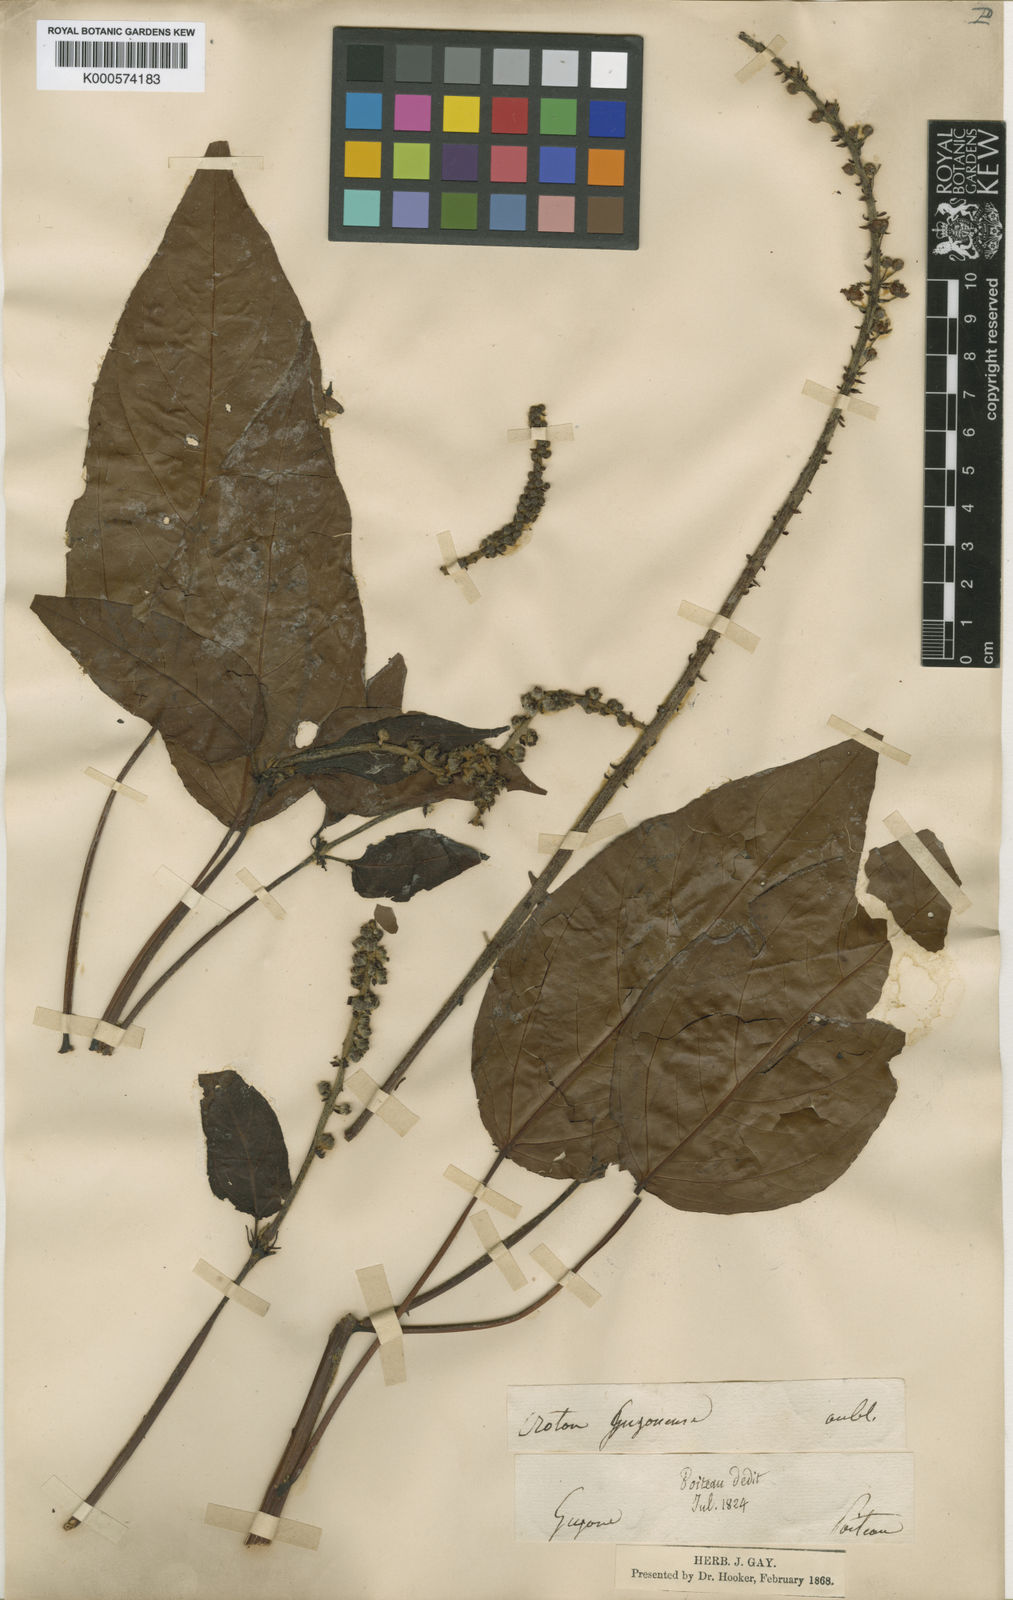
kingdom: Plantae
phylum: Tracheophyta
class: Magnoliopsida
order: Malpighiales
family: Euphorbiaceae
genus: Croton
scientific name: Croton
